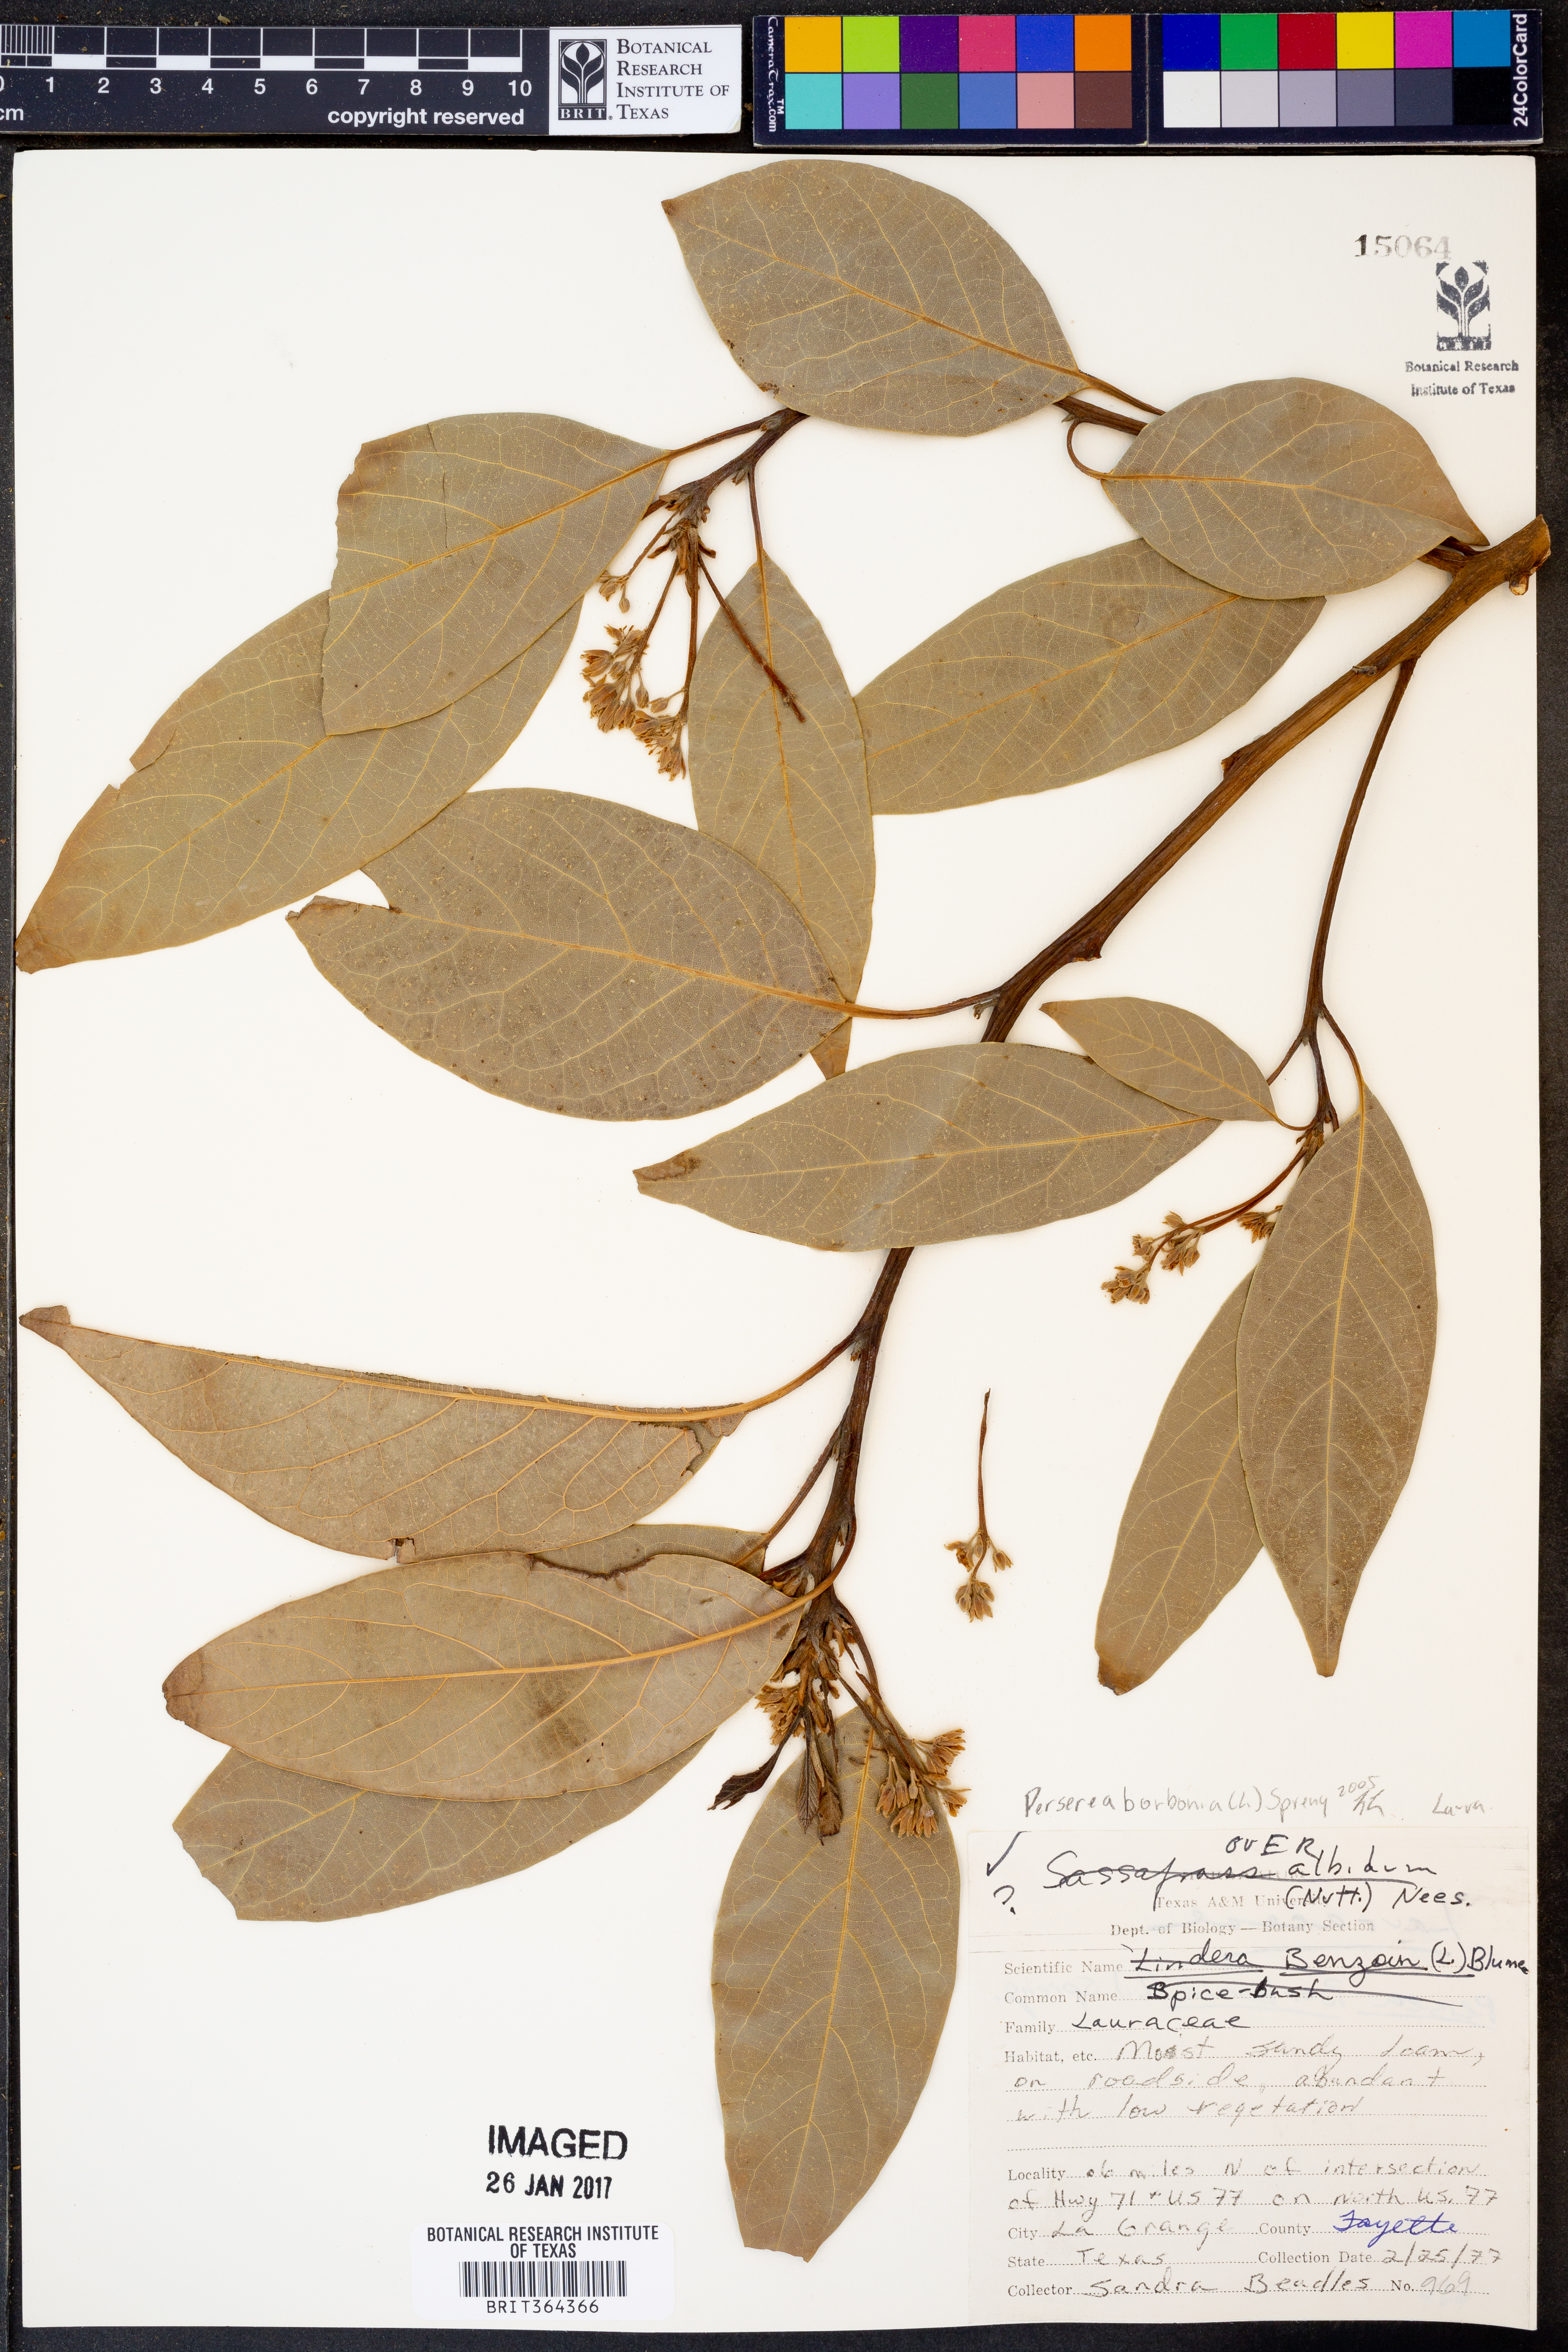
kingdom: Plantae
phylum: Tracheophyta
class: Magnoliopsida
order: Laurales
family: Lauraceae
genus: Persea
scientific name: Persea borbonia
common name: Redbay
